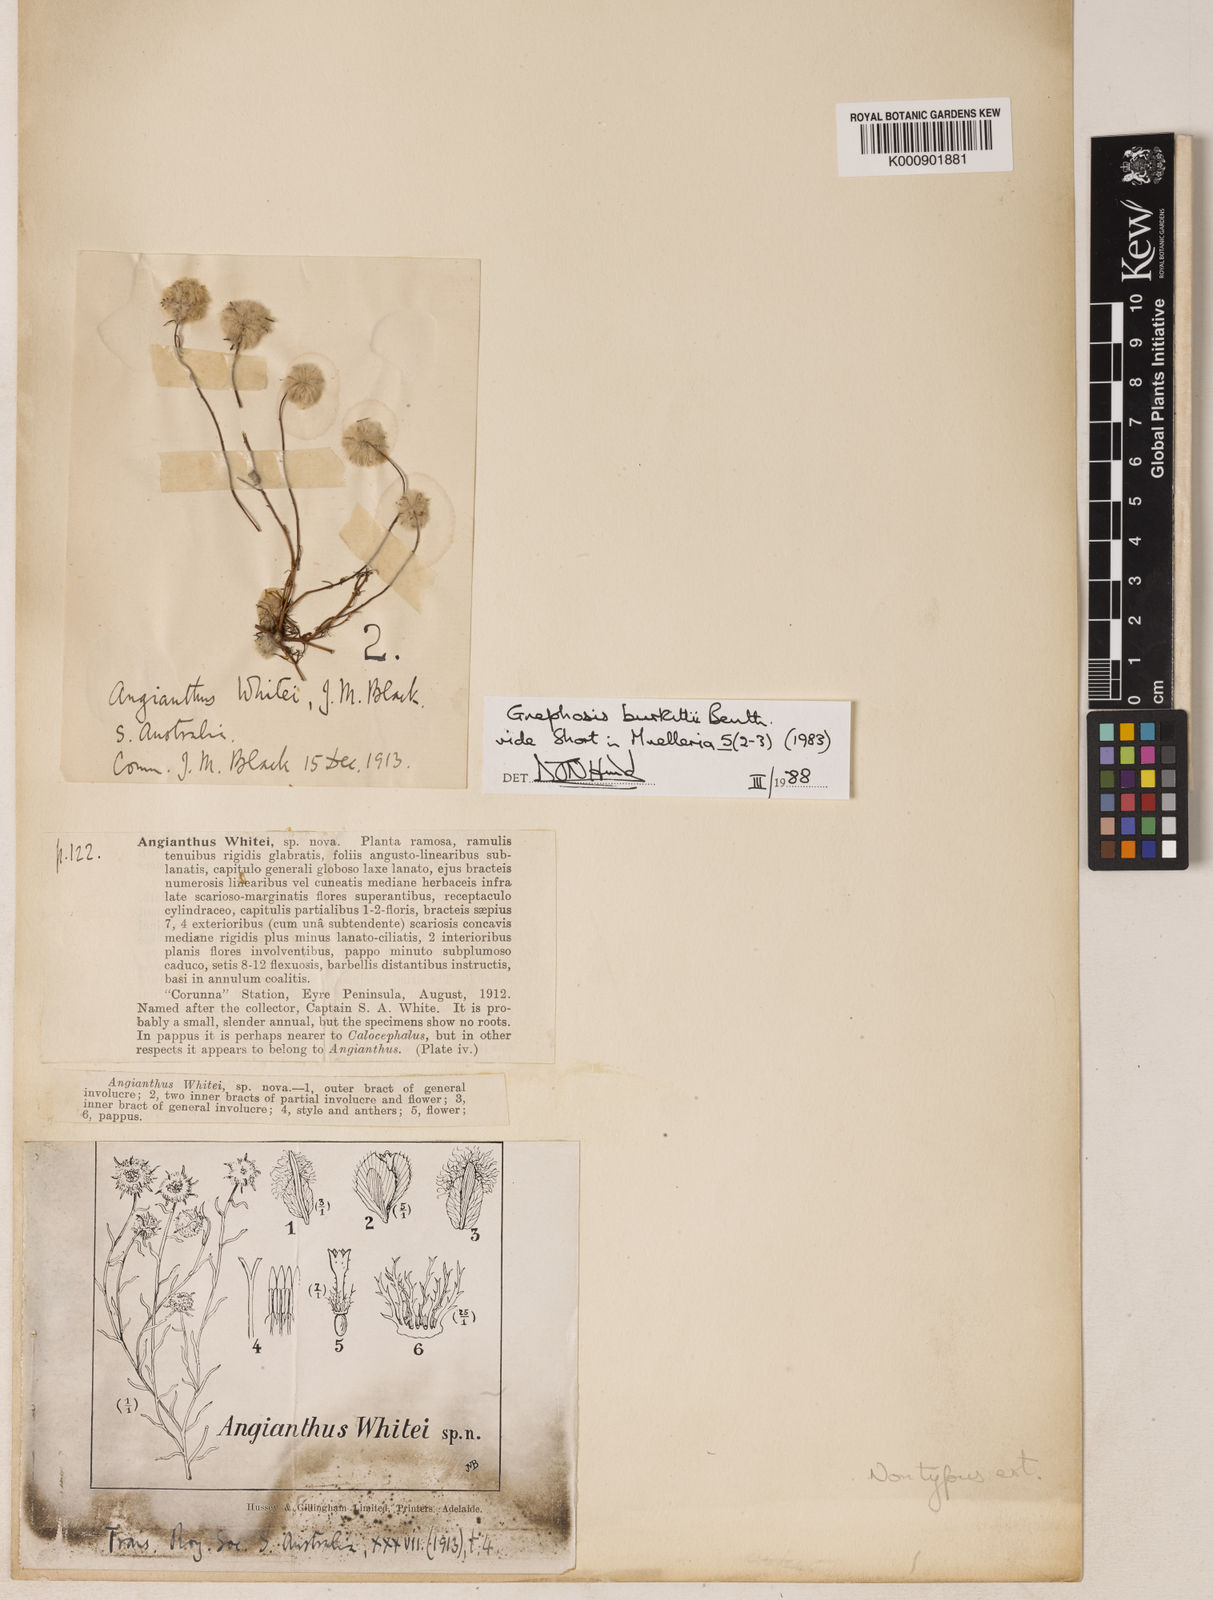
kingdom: Plantae
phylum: Tracheophyta
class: Magnoliopsida
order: Asterales
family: Asteraceae
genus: Lemooria
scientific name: Lemooria burkittii
